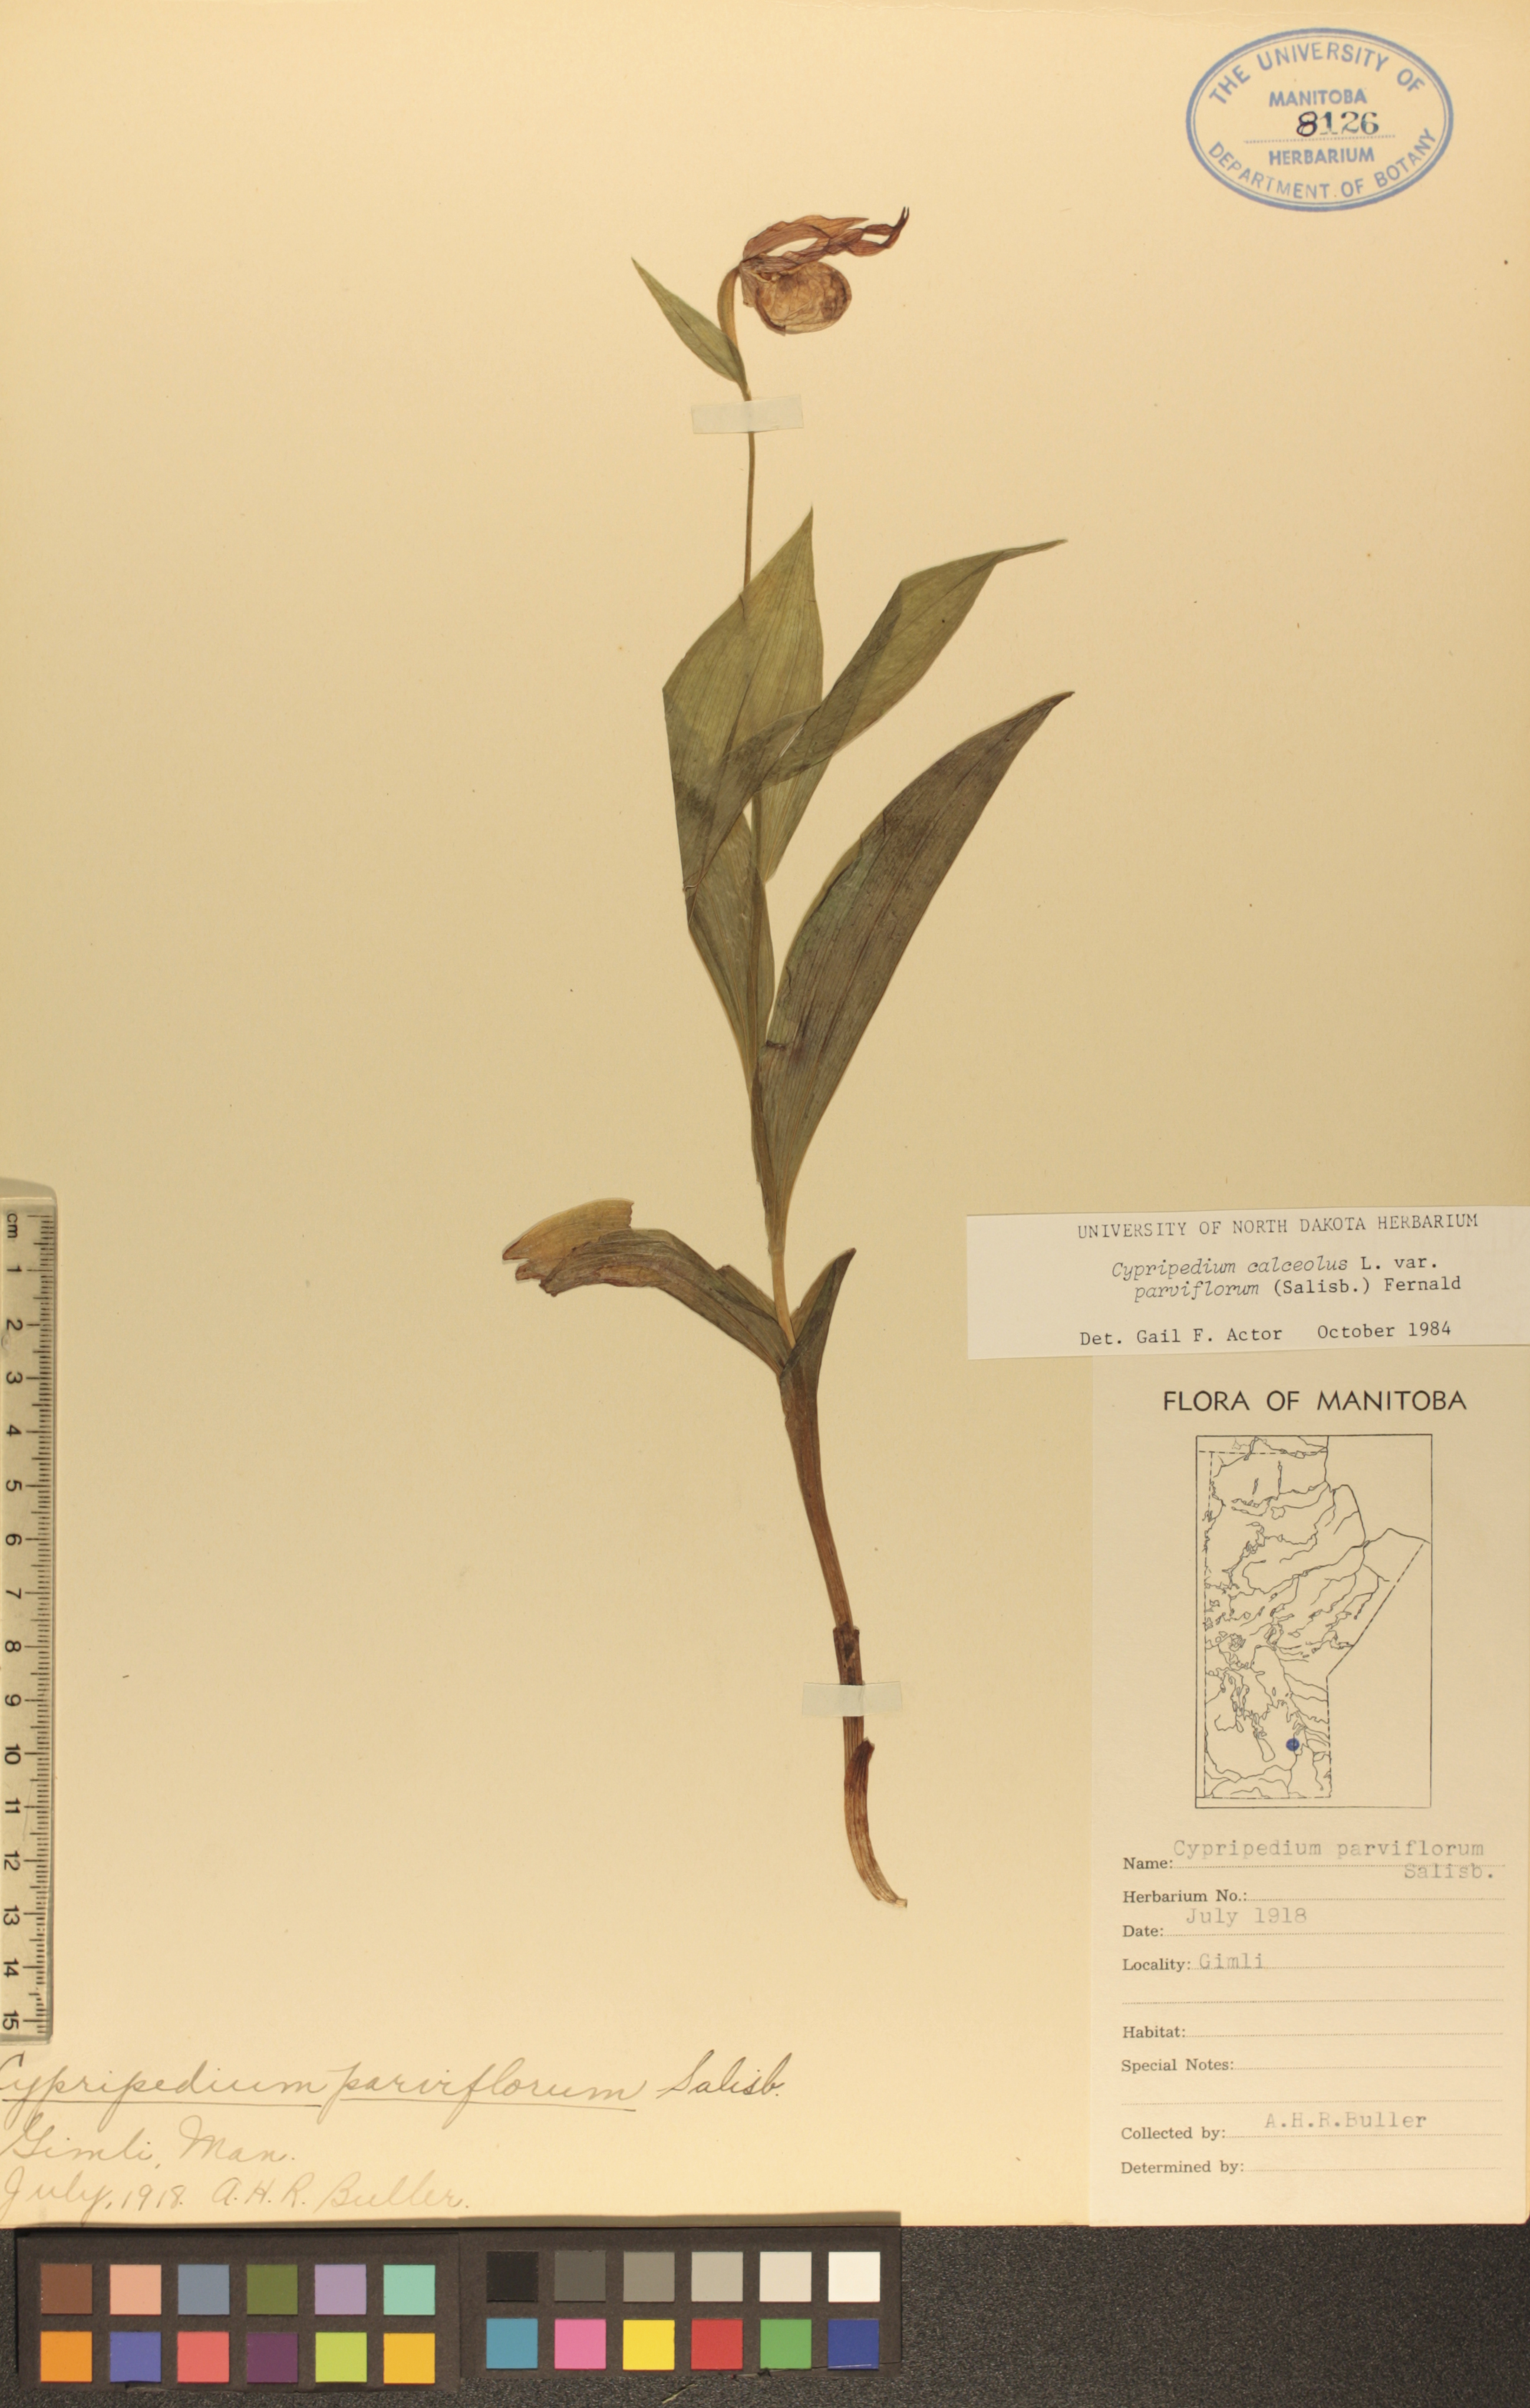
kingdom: Plantae
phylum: Tracheophyta
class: Liliopsida
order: Asparagales
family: Orchidaceae
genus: Cypripedium
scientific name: Cypripedium parviflorum
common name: American yellow lady's-slipper
